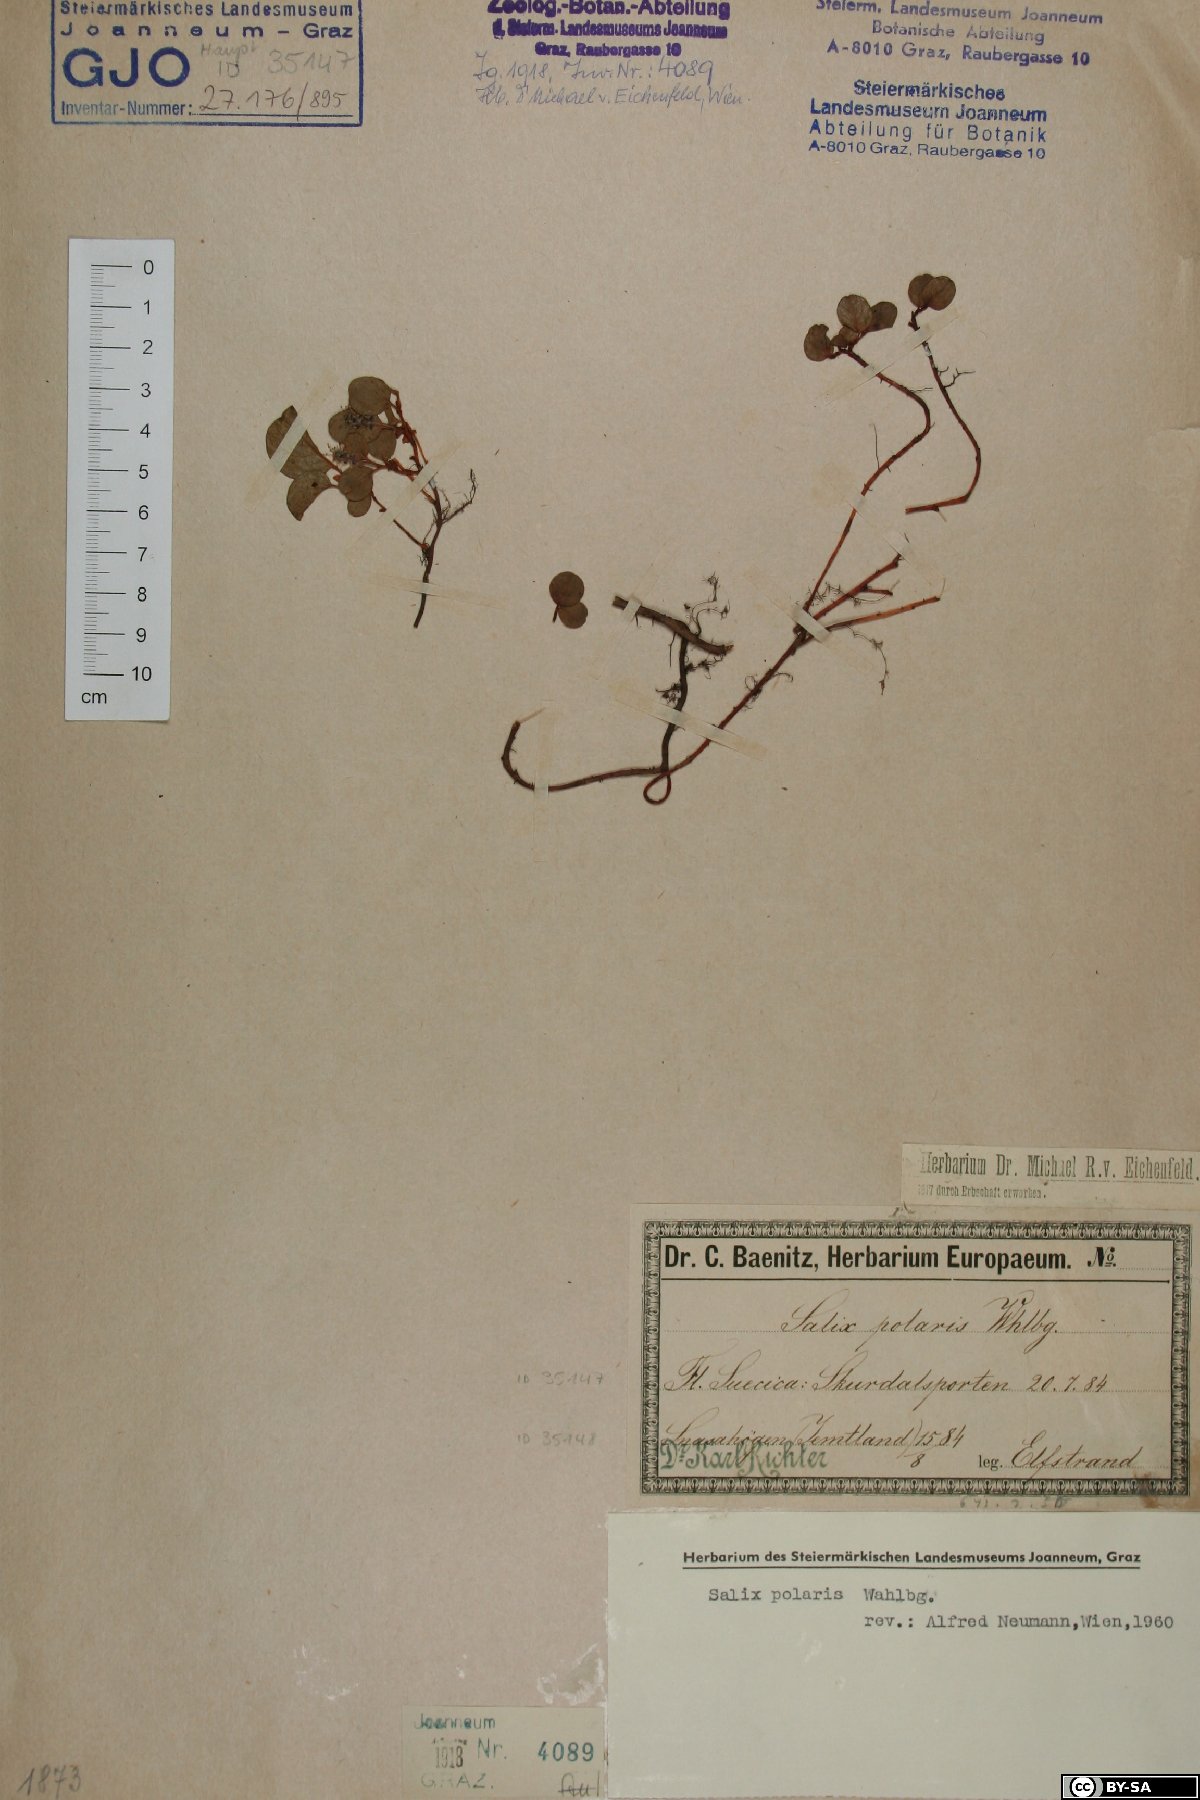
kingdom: Plantae
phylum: Tracheophyta
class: Magnoliopsida
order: Malpighiales
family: Salicaceae
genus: Salix
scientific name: Salix polaris
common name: Polar willow
